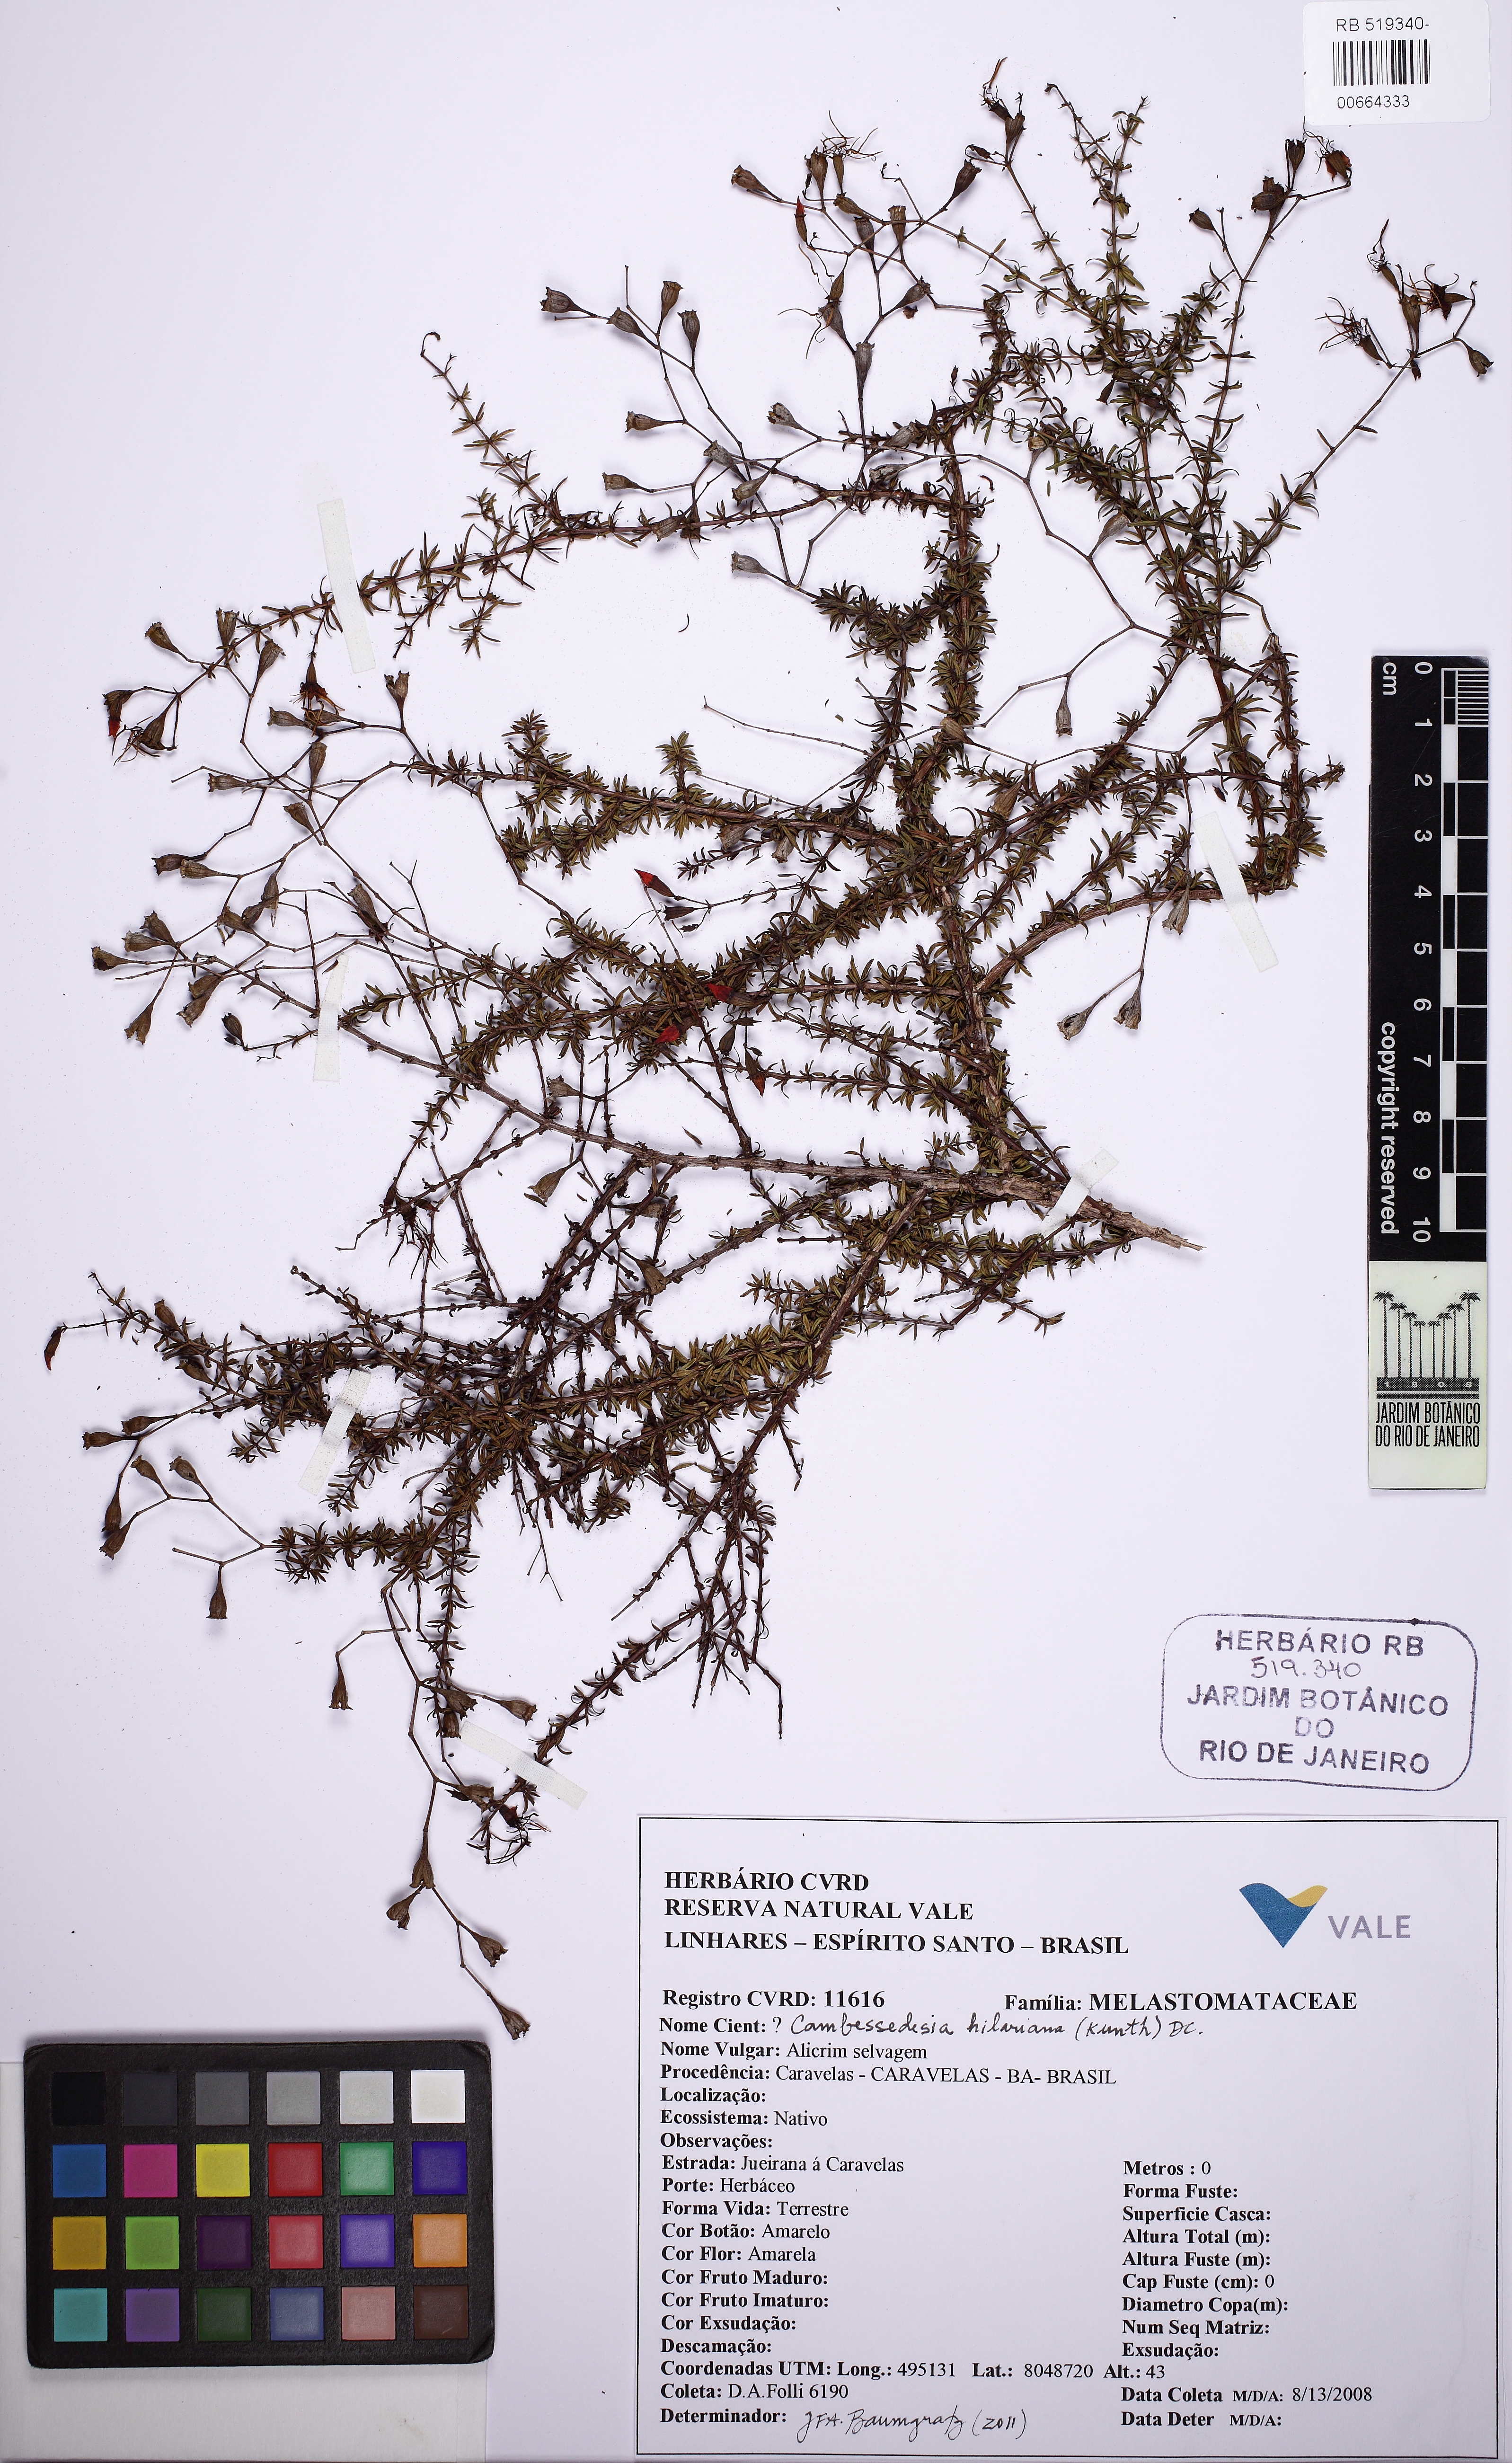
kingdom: Plantae
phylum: Tracheophyta
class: Magnoliopsida
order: Myrtales
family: Melastomataceae
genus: Cambessedesia
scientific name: Cambessedesia hilariana
